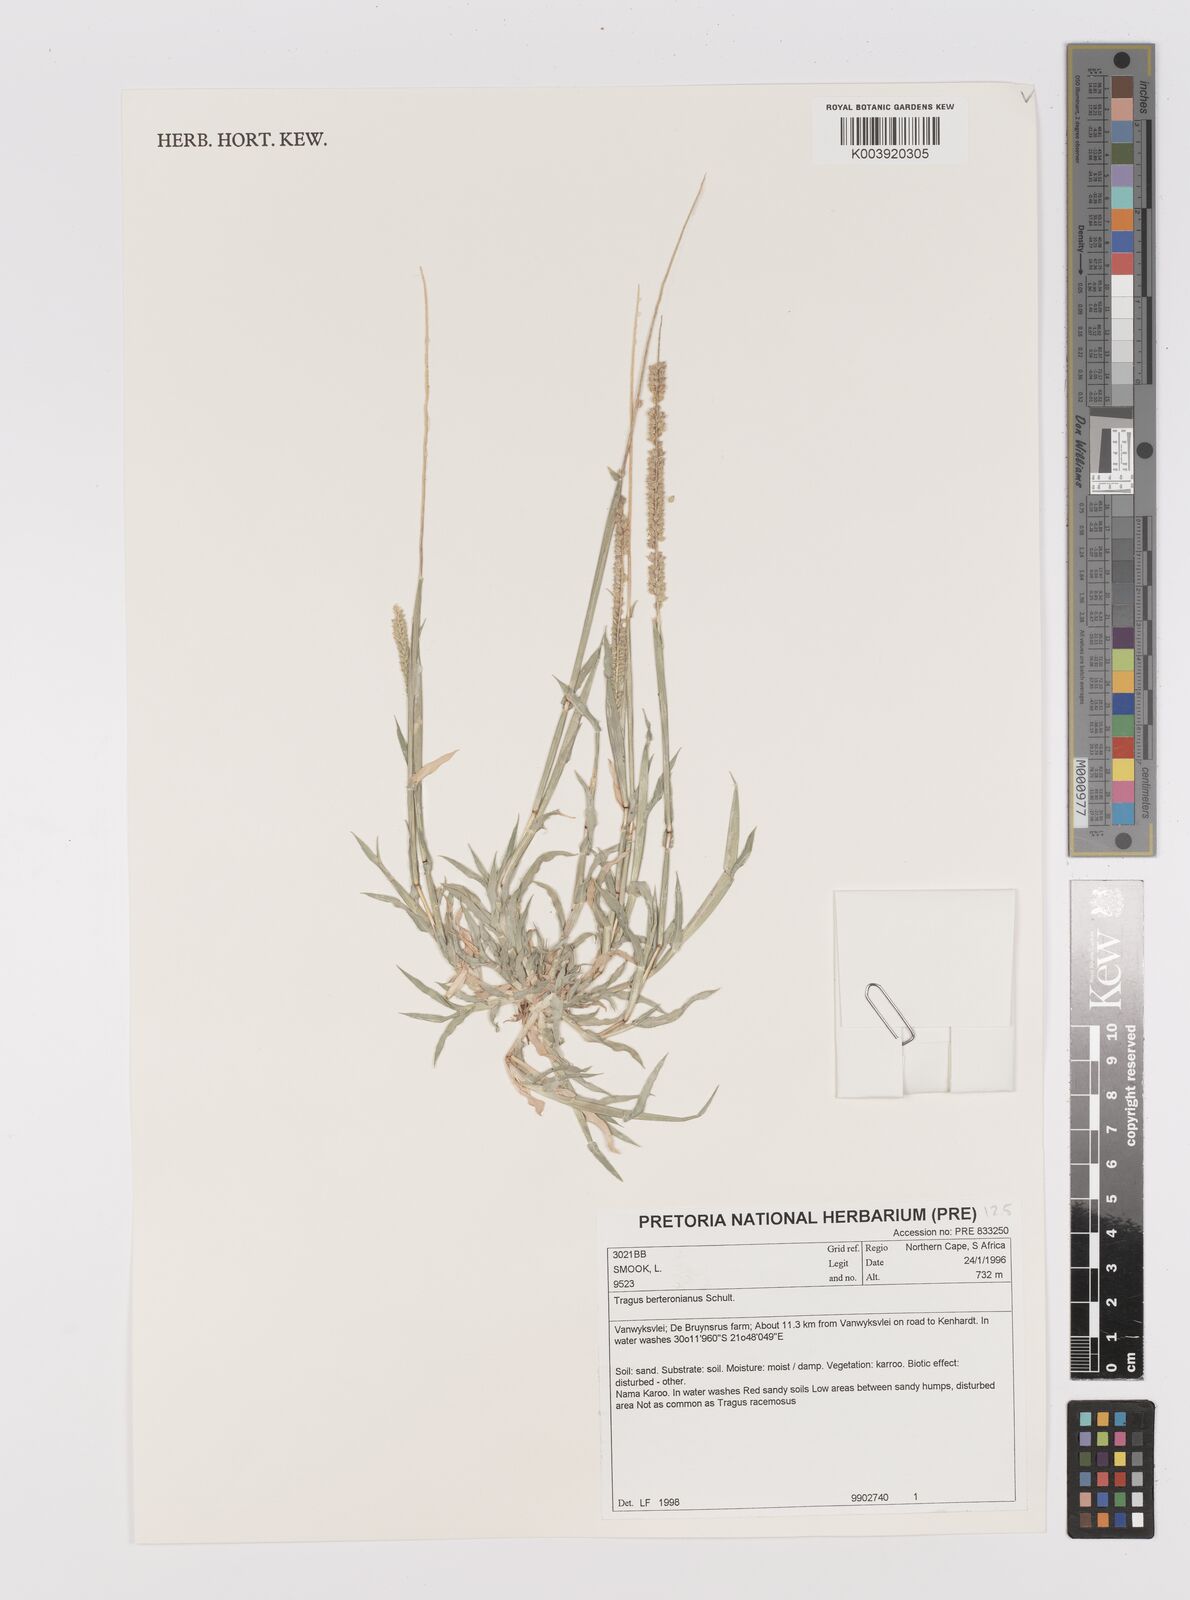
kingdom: Plantae
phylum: Tracheophyta
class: Liliopsida
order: Poales
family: Poaceae
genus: Tragus
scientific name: Tragus berteronianus
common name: African bur-grass
